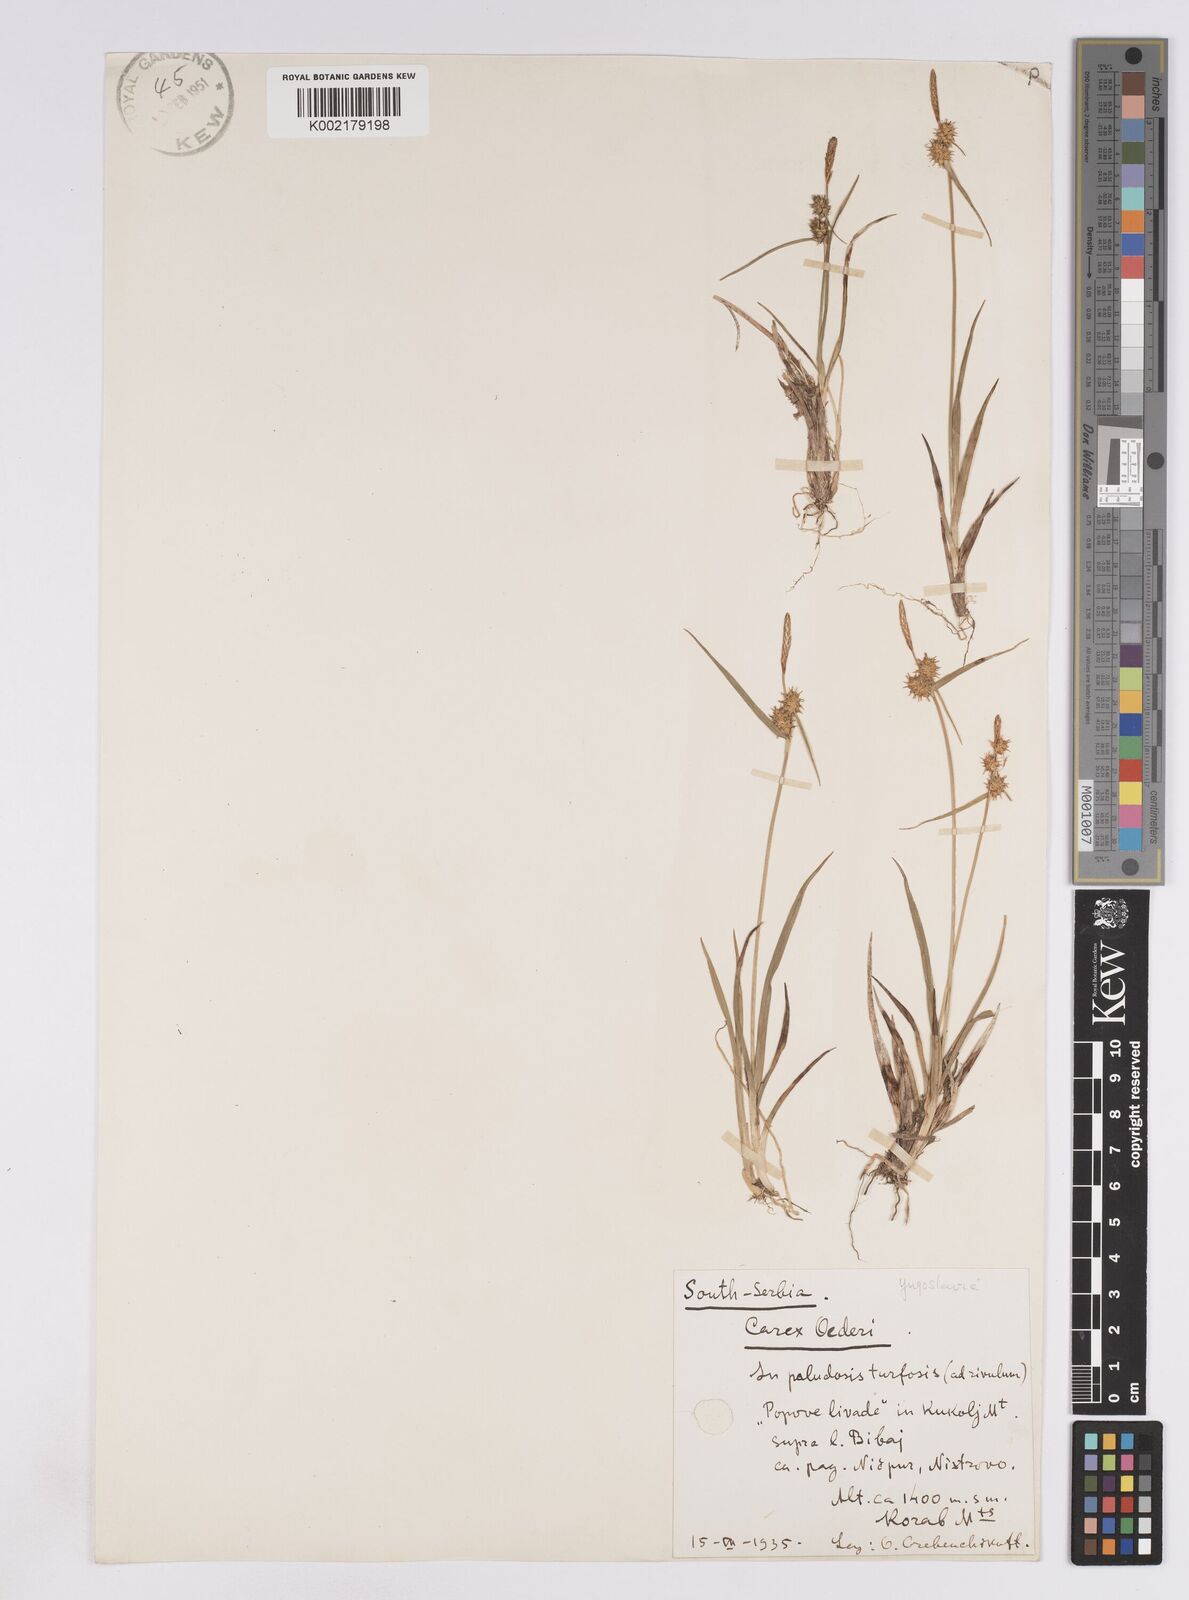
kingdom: Plantae
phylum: Tracheophyta
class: Liliopsida
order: Poales
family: Cyperaceae
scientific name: Cyperaceae
